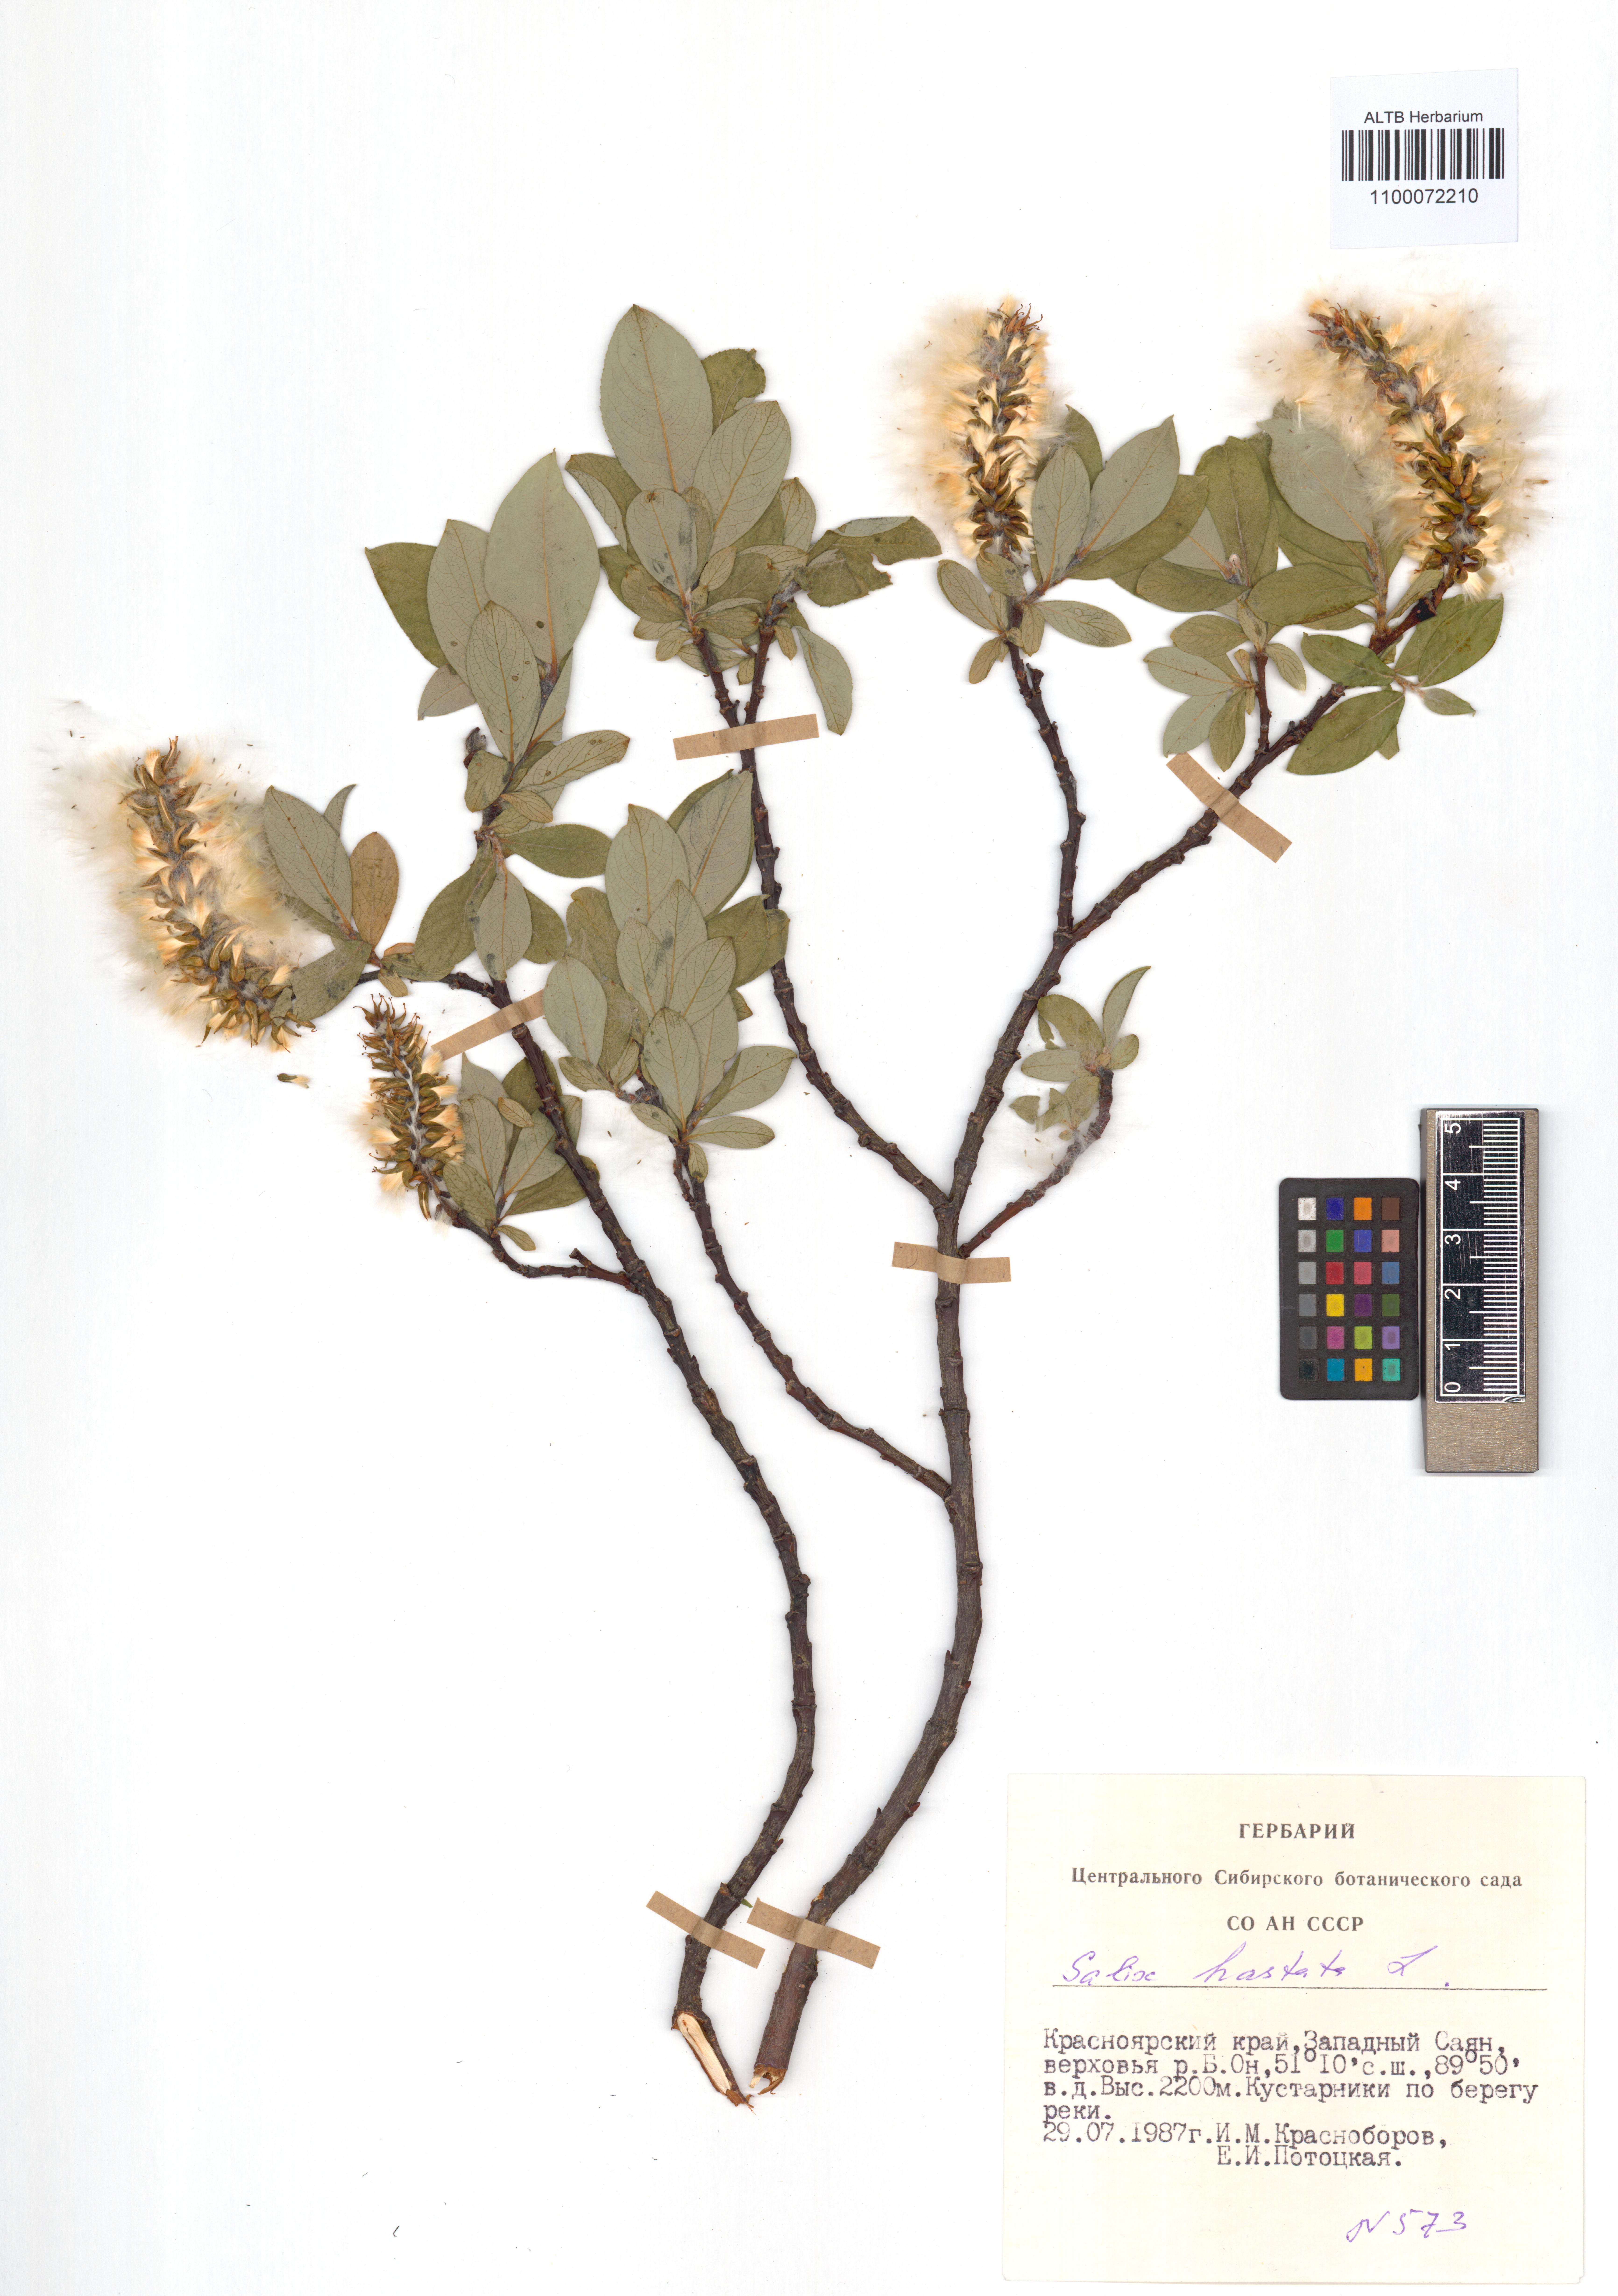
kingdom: Plantae
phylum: Tracheophyta
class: Magnoliopsida
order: Malpighiales
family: Salicaceae
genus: Salix
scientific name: Salix hastata
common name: Halberd willow
